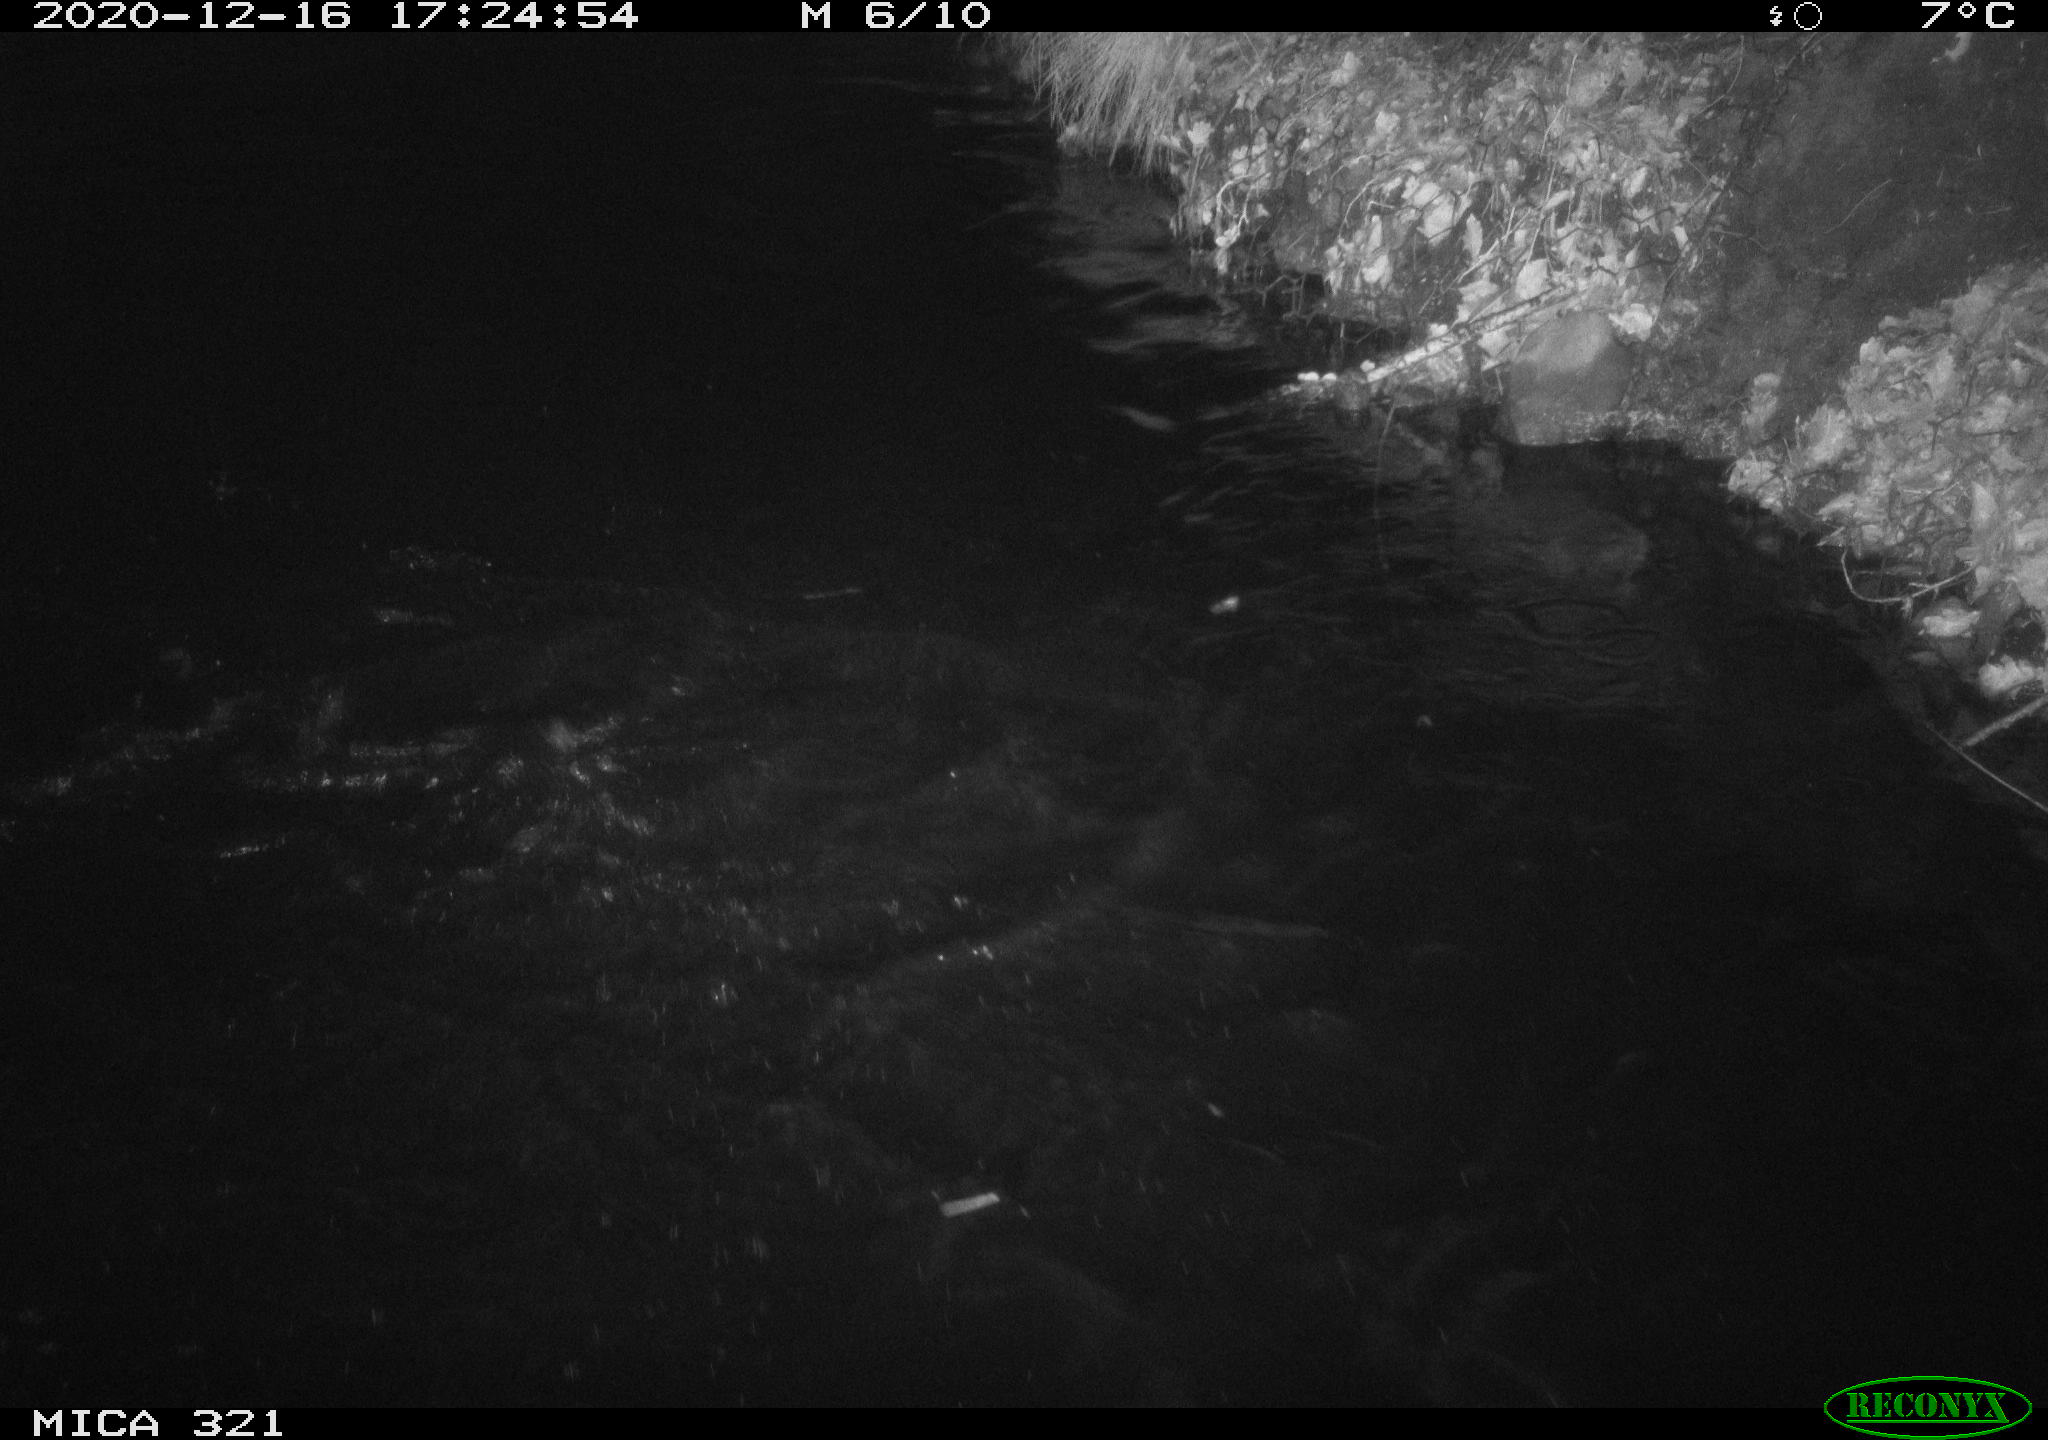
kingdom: Animalia
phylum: Chordata
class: Aves
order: Anseriformes
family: Anatidae
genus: Anas
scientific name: Anas platyrhynchos
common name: Mallard
